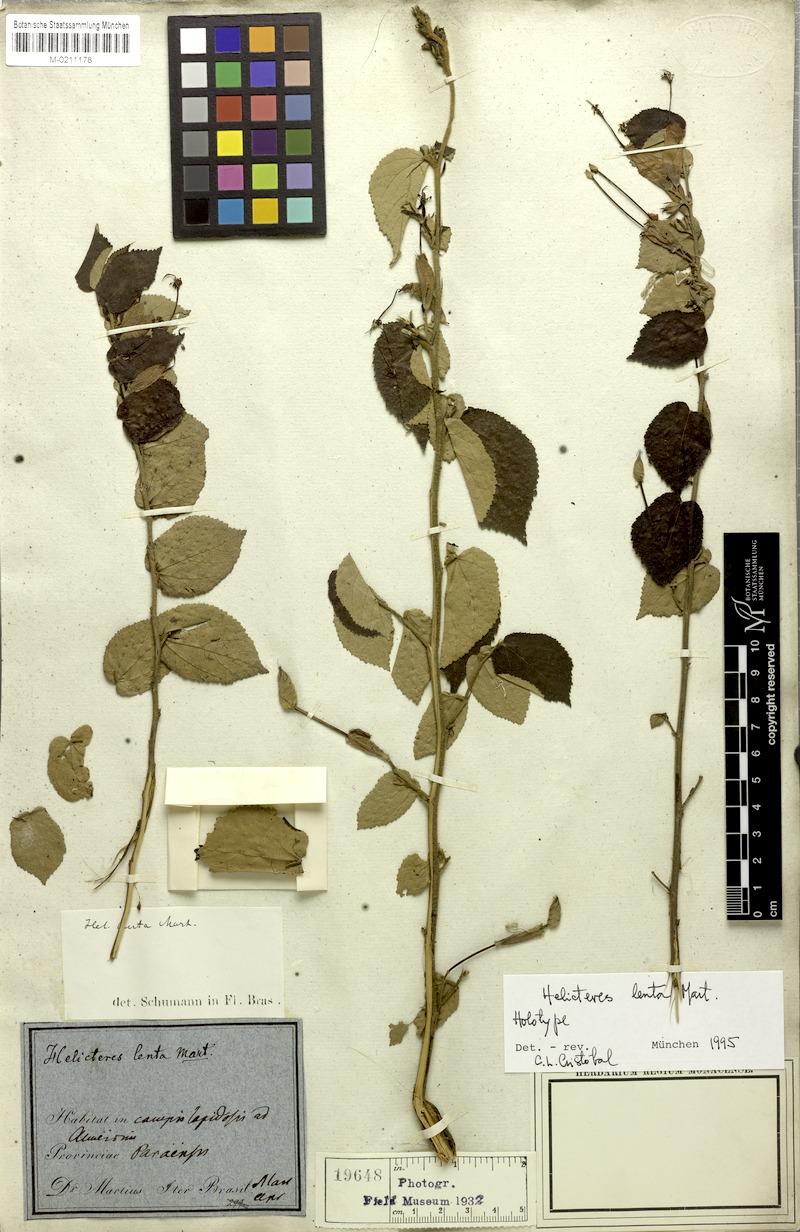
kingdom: Plantae
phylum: Tracheophyta
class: Magnoliopsida
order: Malvales
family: Malvaceae
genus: Helicteres
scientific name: Helicteres lenta
